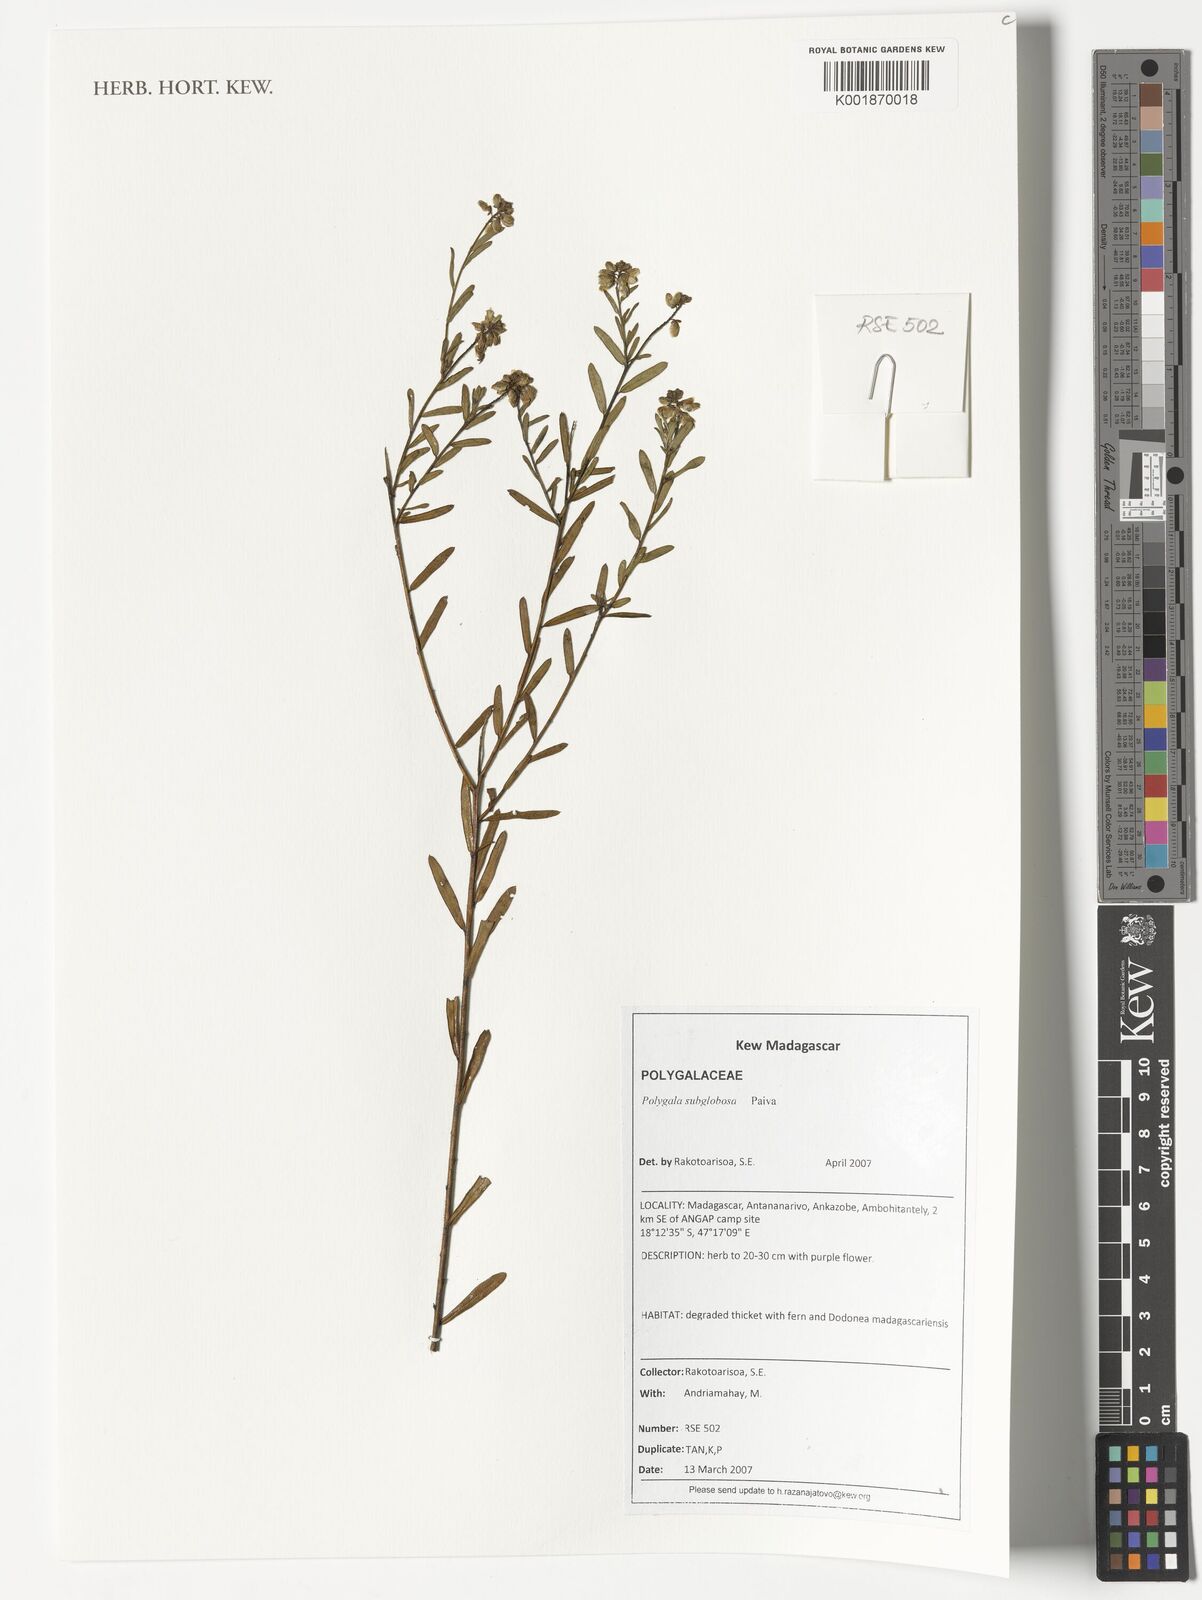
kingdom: Plantae
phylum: Tracheophyta
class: Magnoliopsida
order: Fabales
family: Polygalaceae
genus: Polygala
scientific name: Polygala grandidieri
